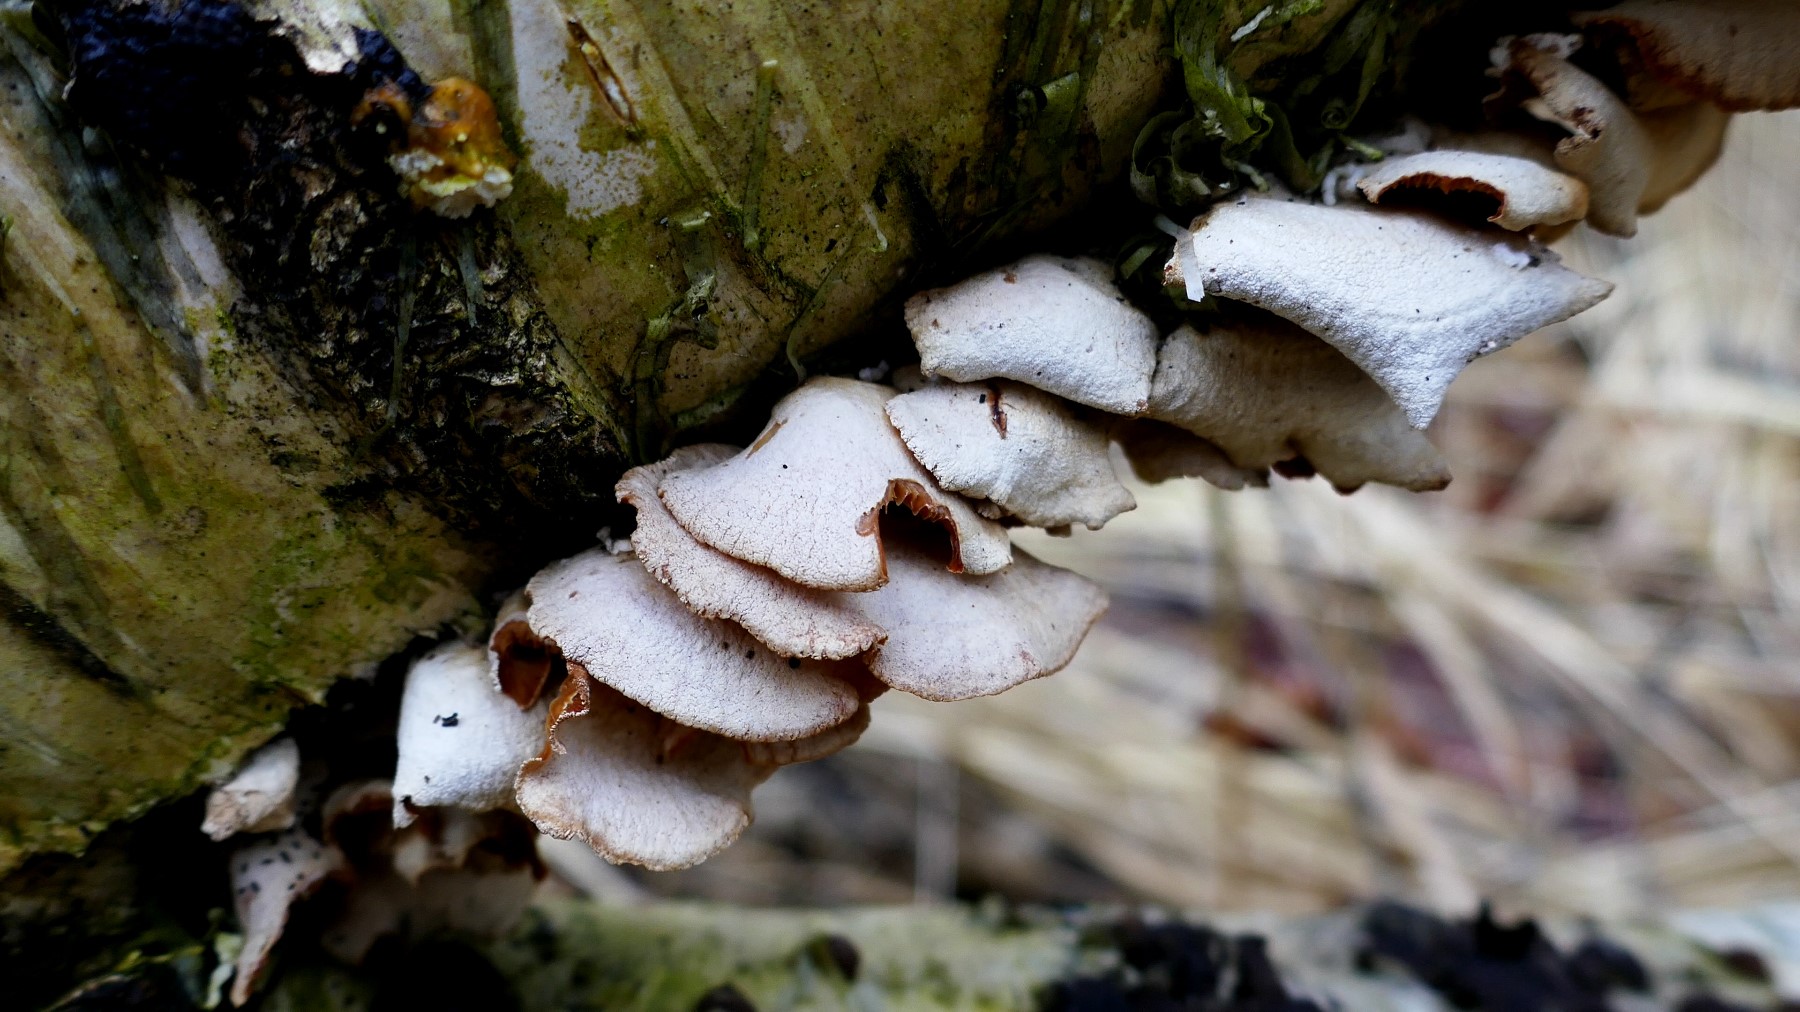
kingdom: Fungi
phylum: Basidiomycota
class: Agaricomycetes
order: Agaricales
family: Mycenaceae
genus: Panellus
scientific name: Panellus stipticus
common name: kliddet epaulethat
